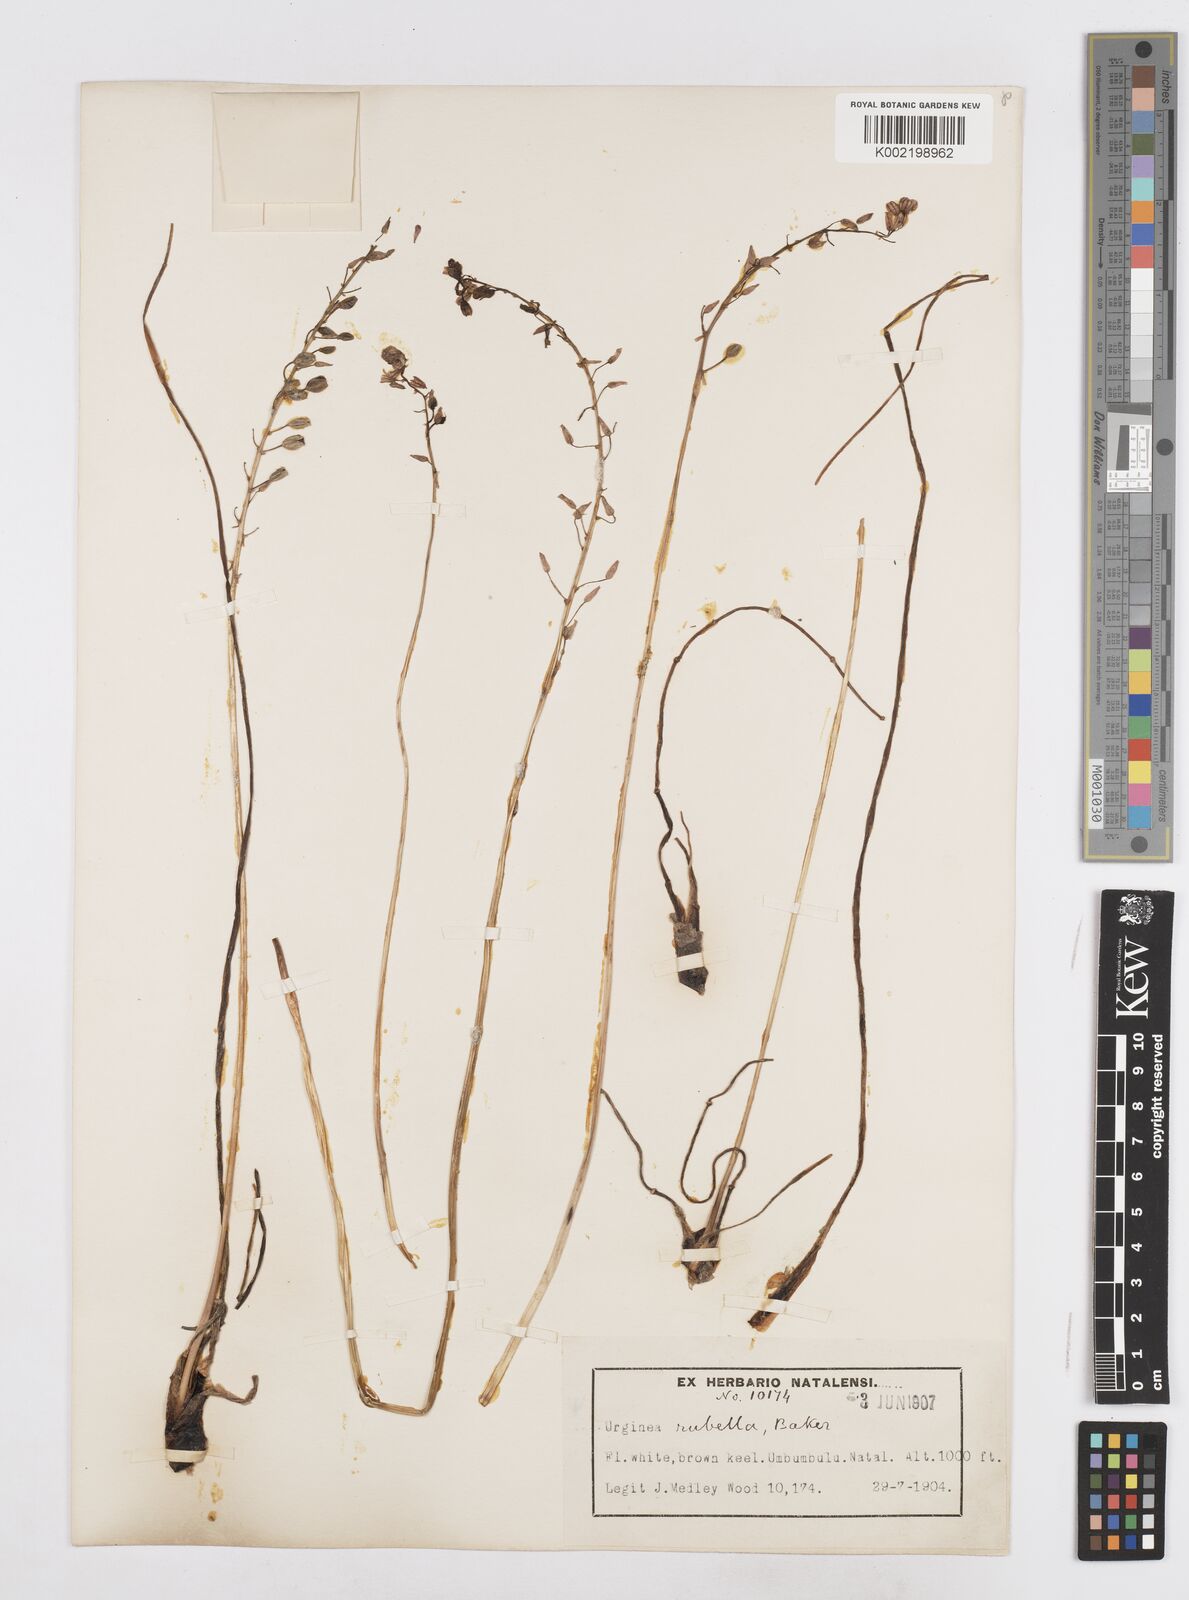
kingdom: Plantae
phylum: Tracheophyta
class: Liliopsida
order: Asparagales
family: Asparagaceae
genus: Drimia
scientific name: Drimia
